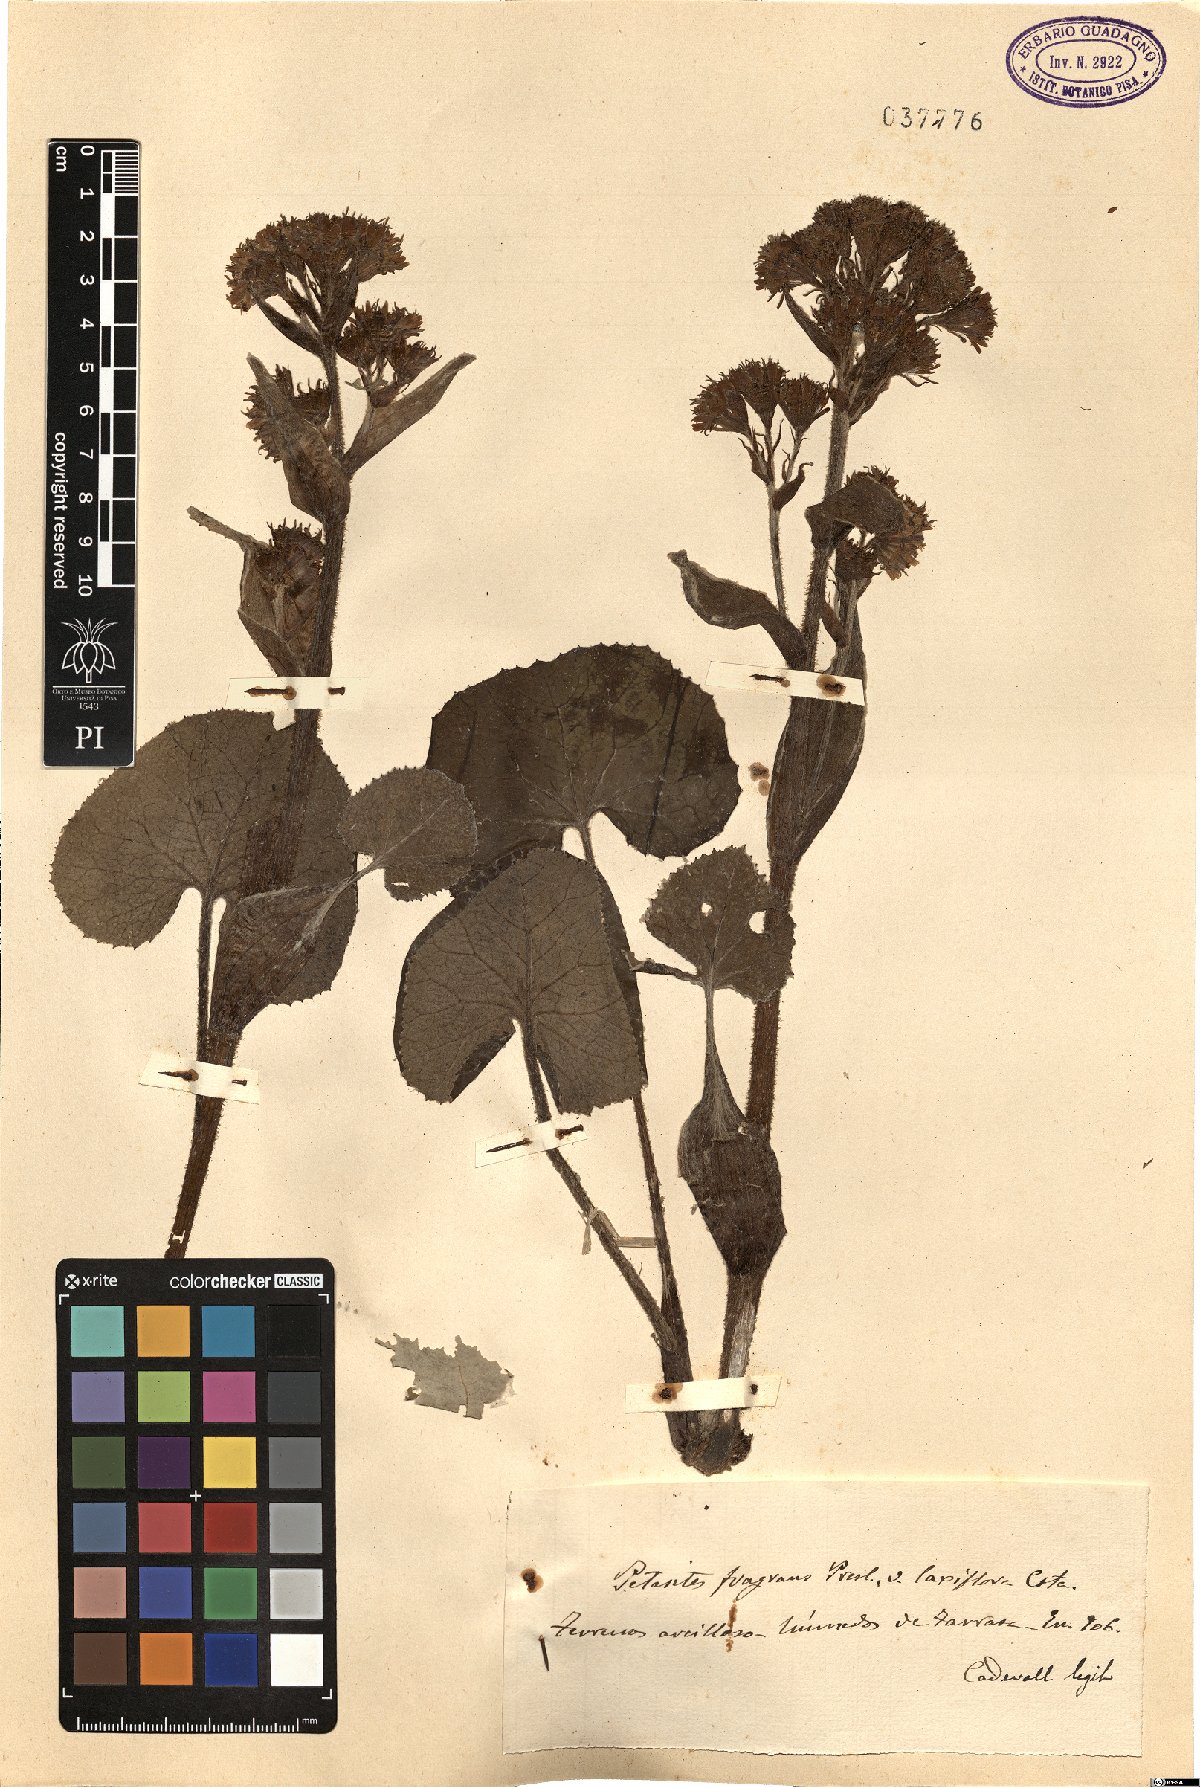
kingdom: Plantae
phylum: Tracheophyta
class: Magnoliopsida
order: Asterales
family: Asteraceae
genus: Petasites
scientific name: Petasites pyrenaicus
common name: Winter heliotrope
